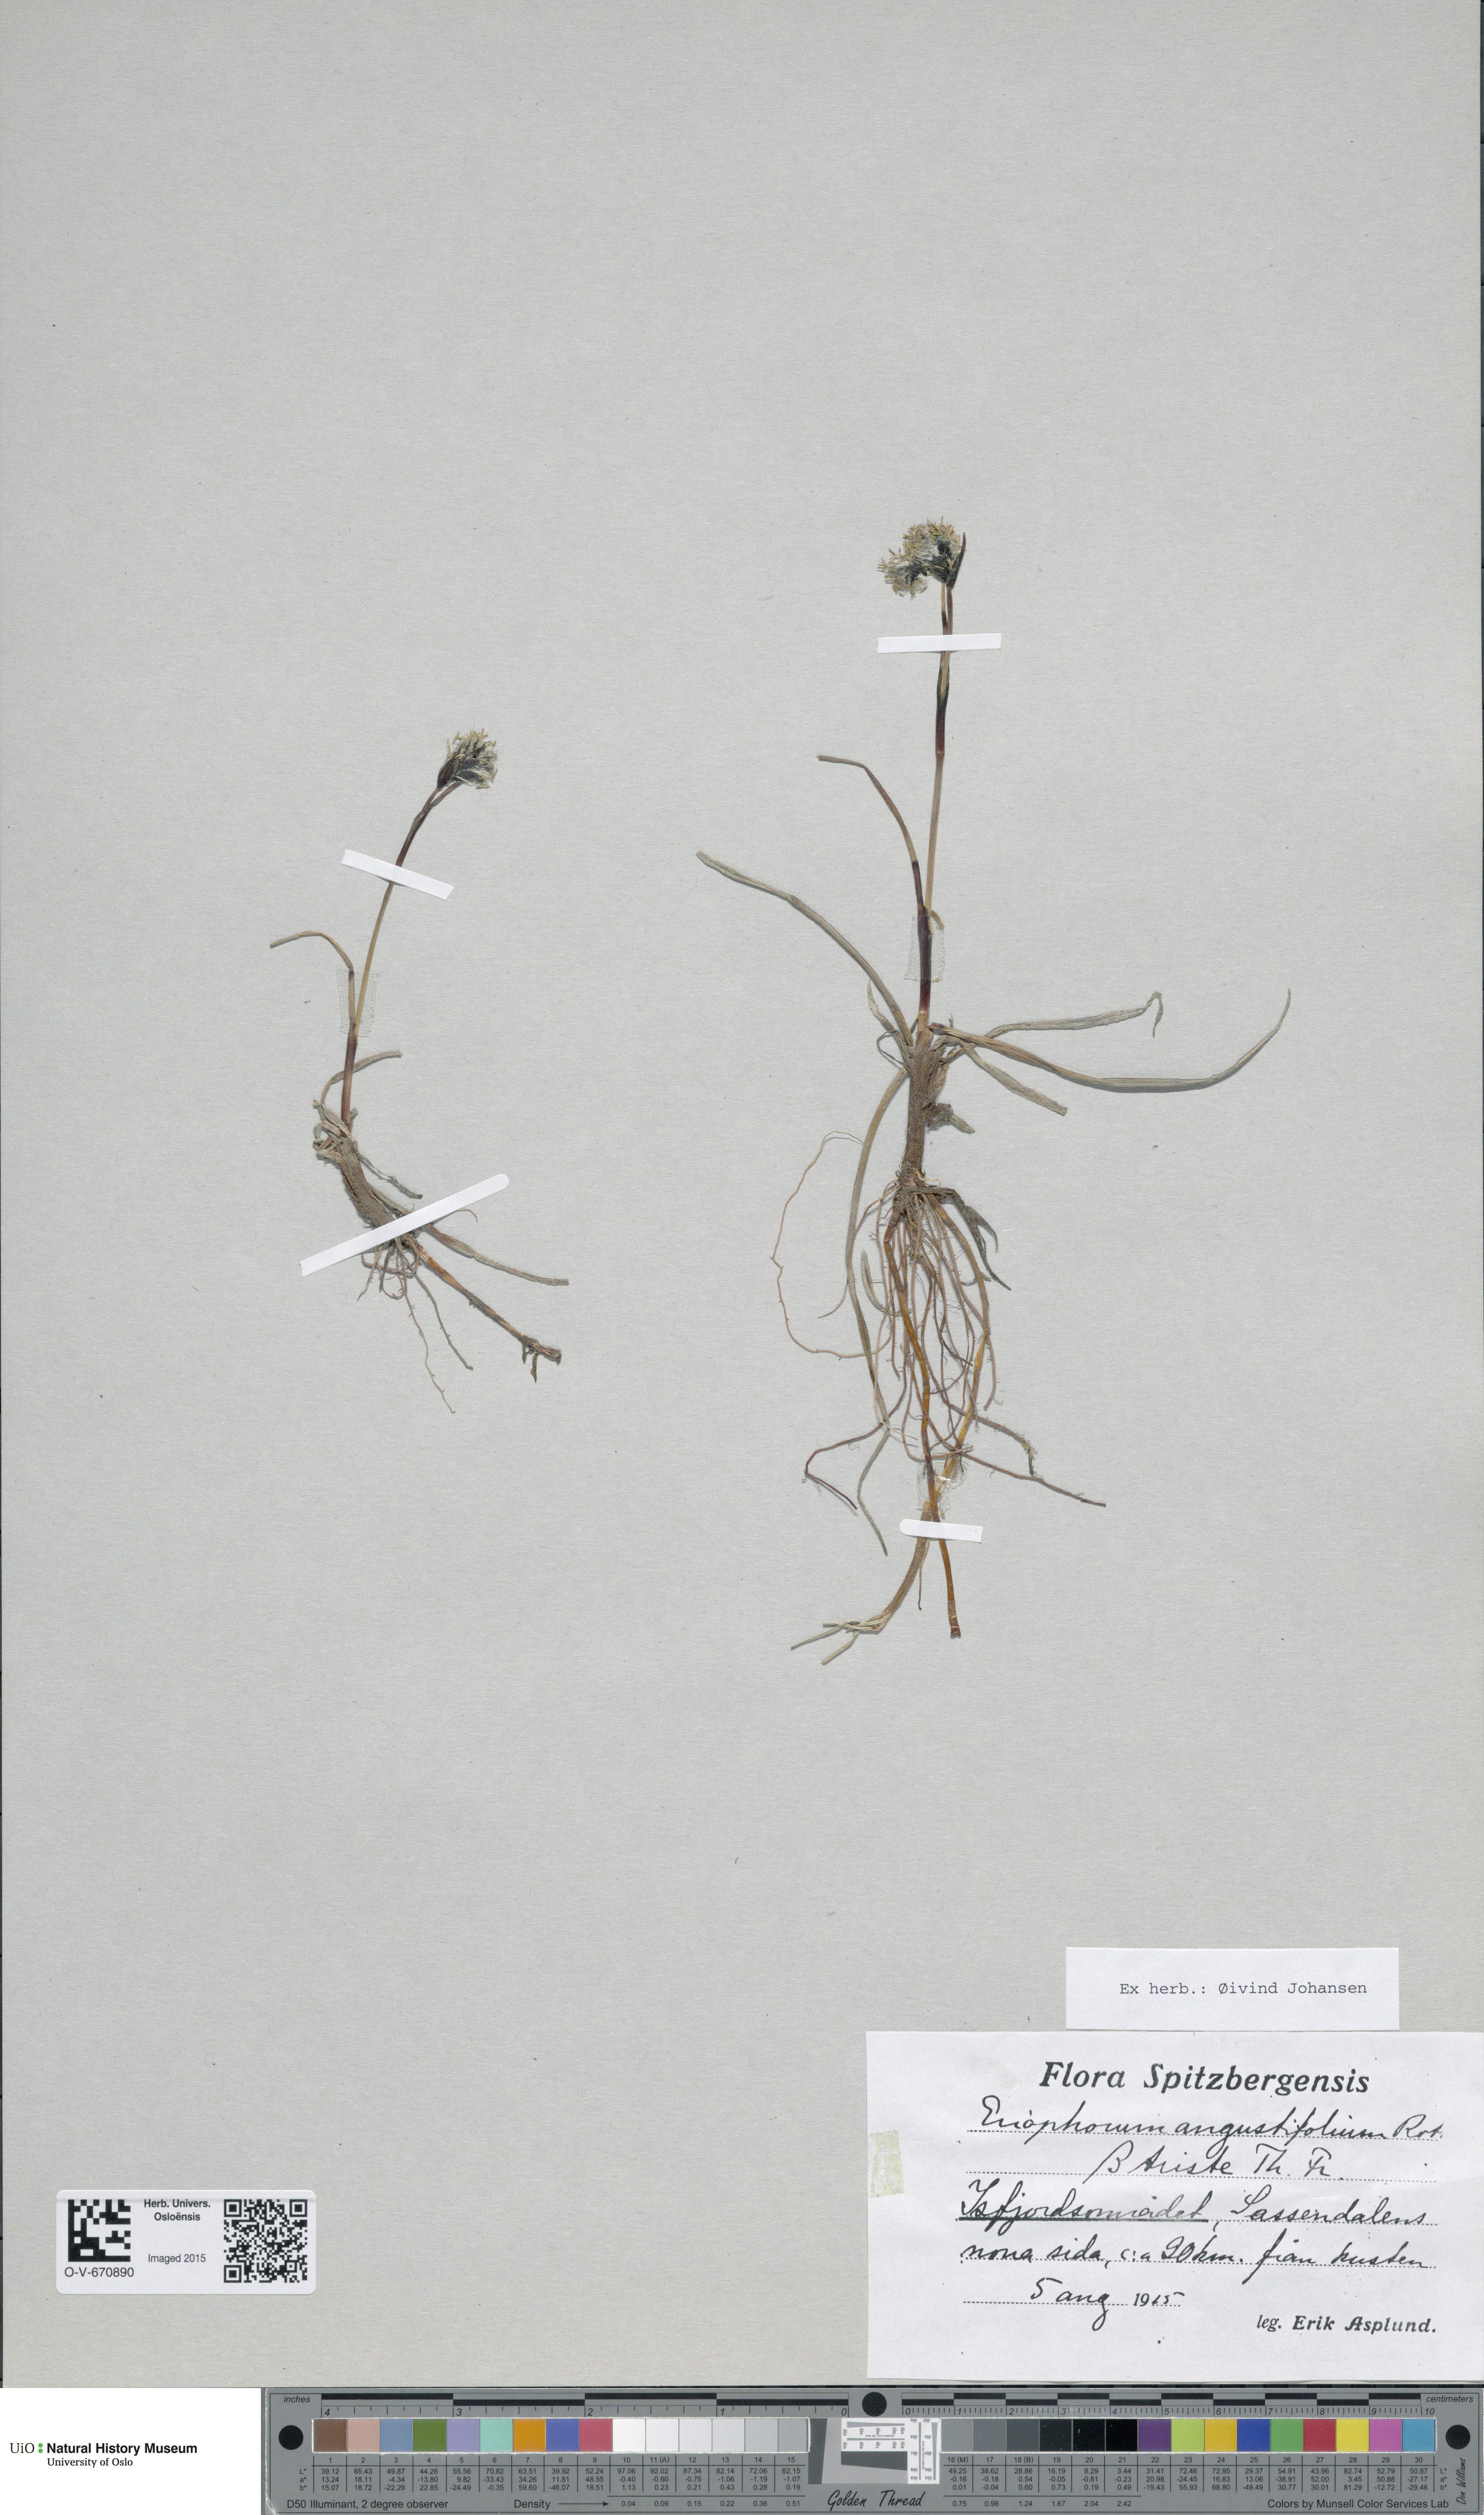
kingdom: Plantae
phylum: Tracheophyta
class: Liliopsida
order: Poales
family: Cyperaceae
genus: Eriophorum
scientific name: Eriophorum triste
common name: Tall cottongrass
